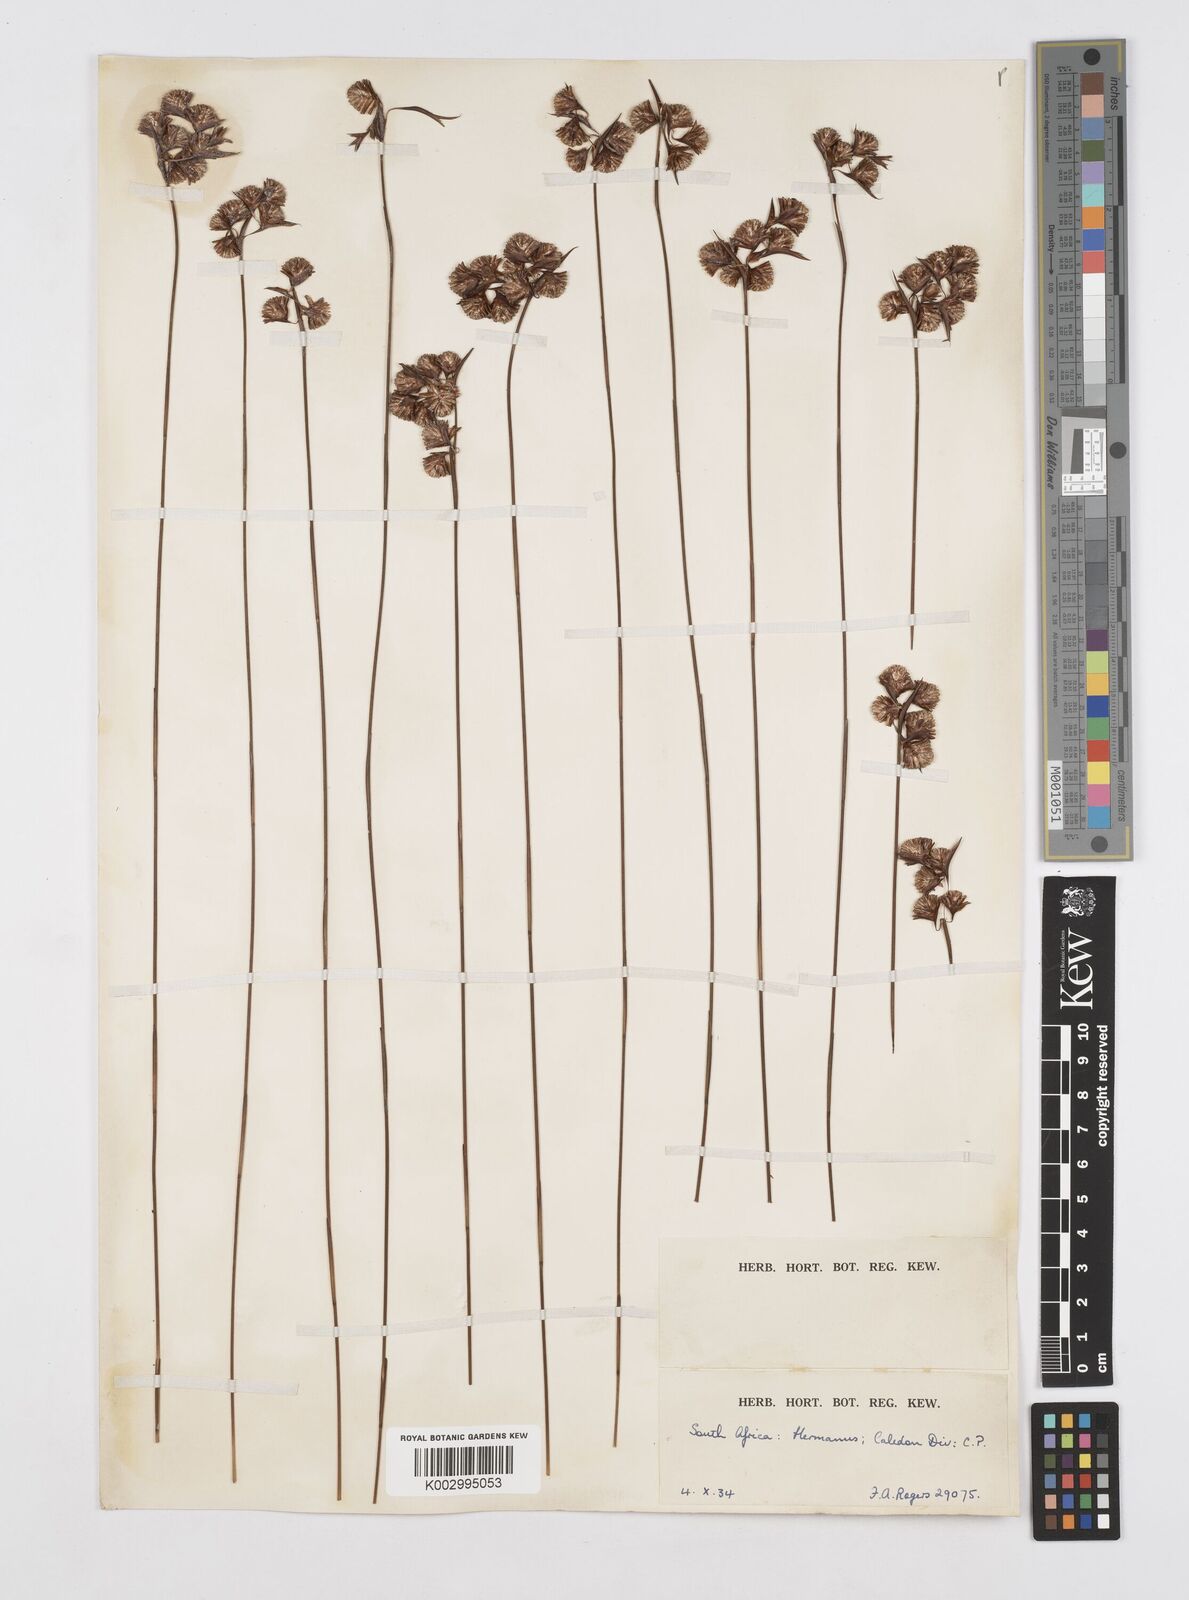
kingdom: Plantae
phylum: Tracheophyta
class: Liliopsida
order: Poales
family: Restionaceae
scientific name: Restionaceae
